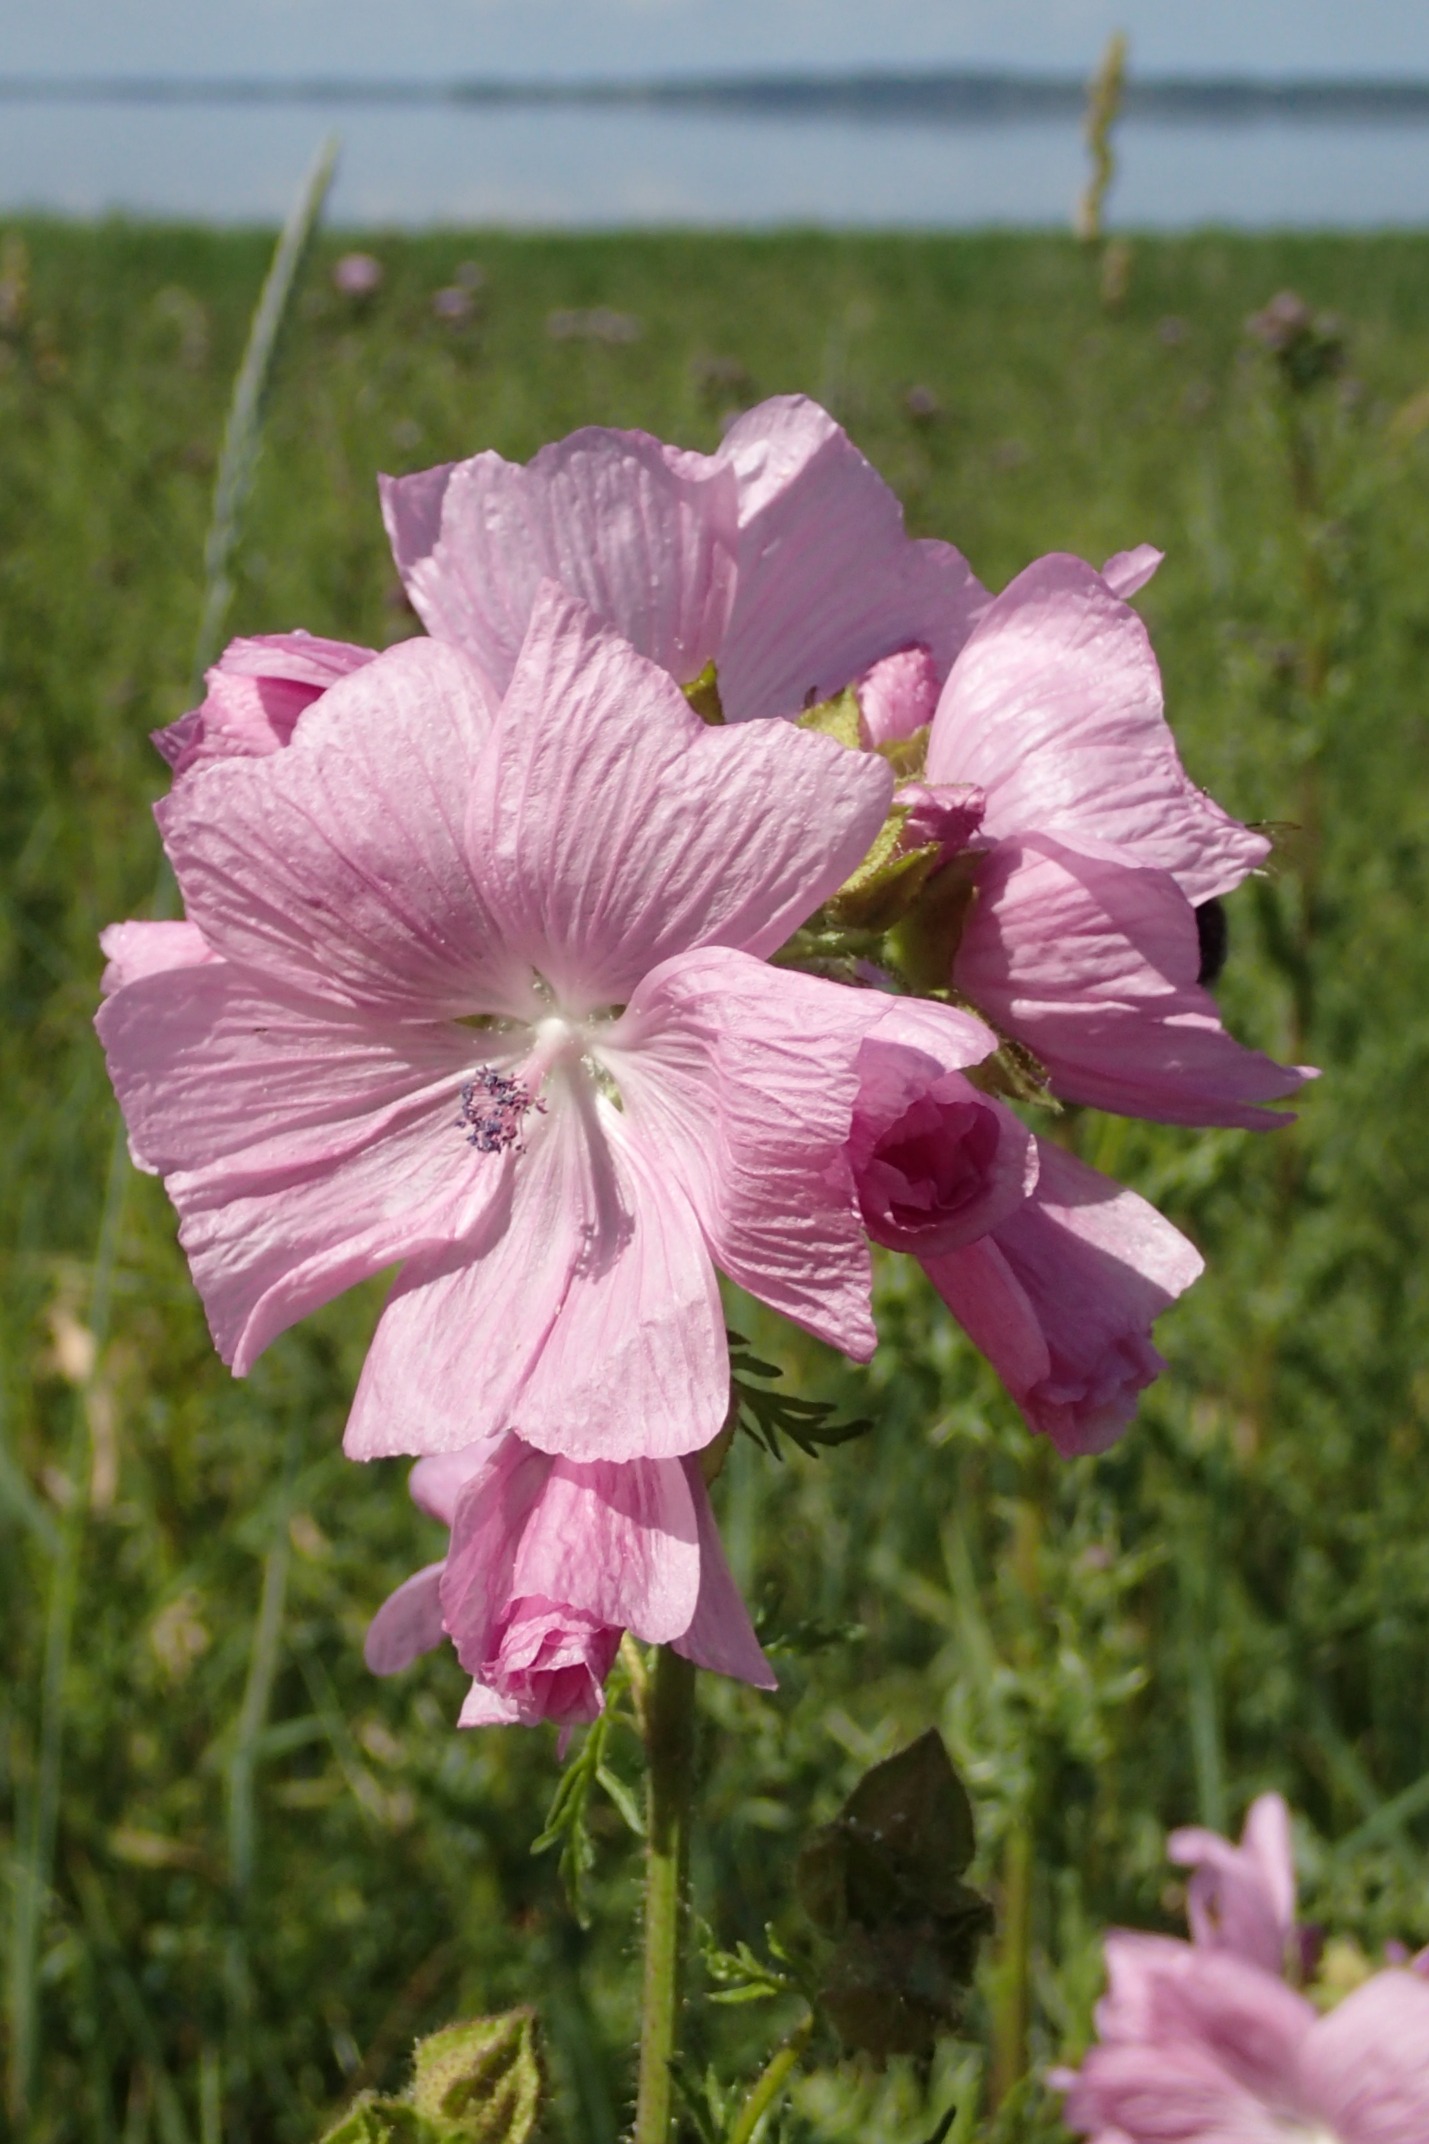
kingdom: Plantae
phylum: Tracheophyta
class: Magnoliopsida
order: Malvales
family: Malvaceae
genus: Malva
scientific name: Malva moschata
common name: Moskus-katost
